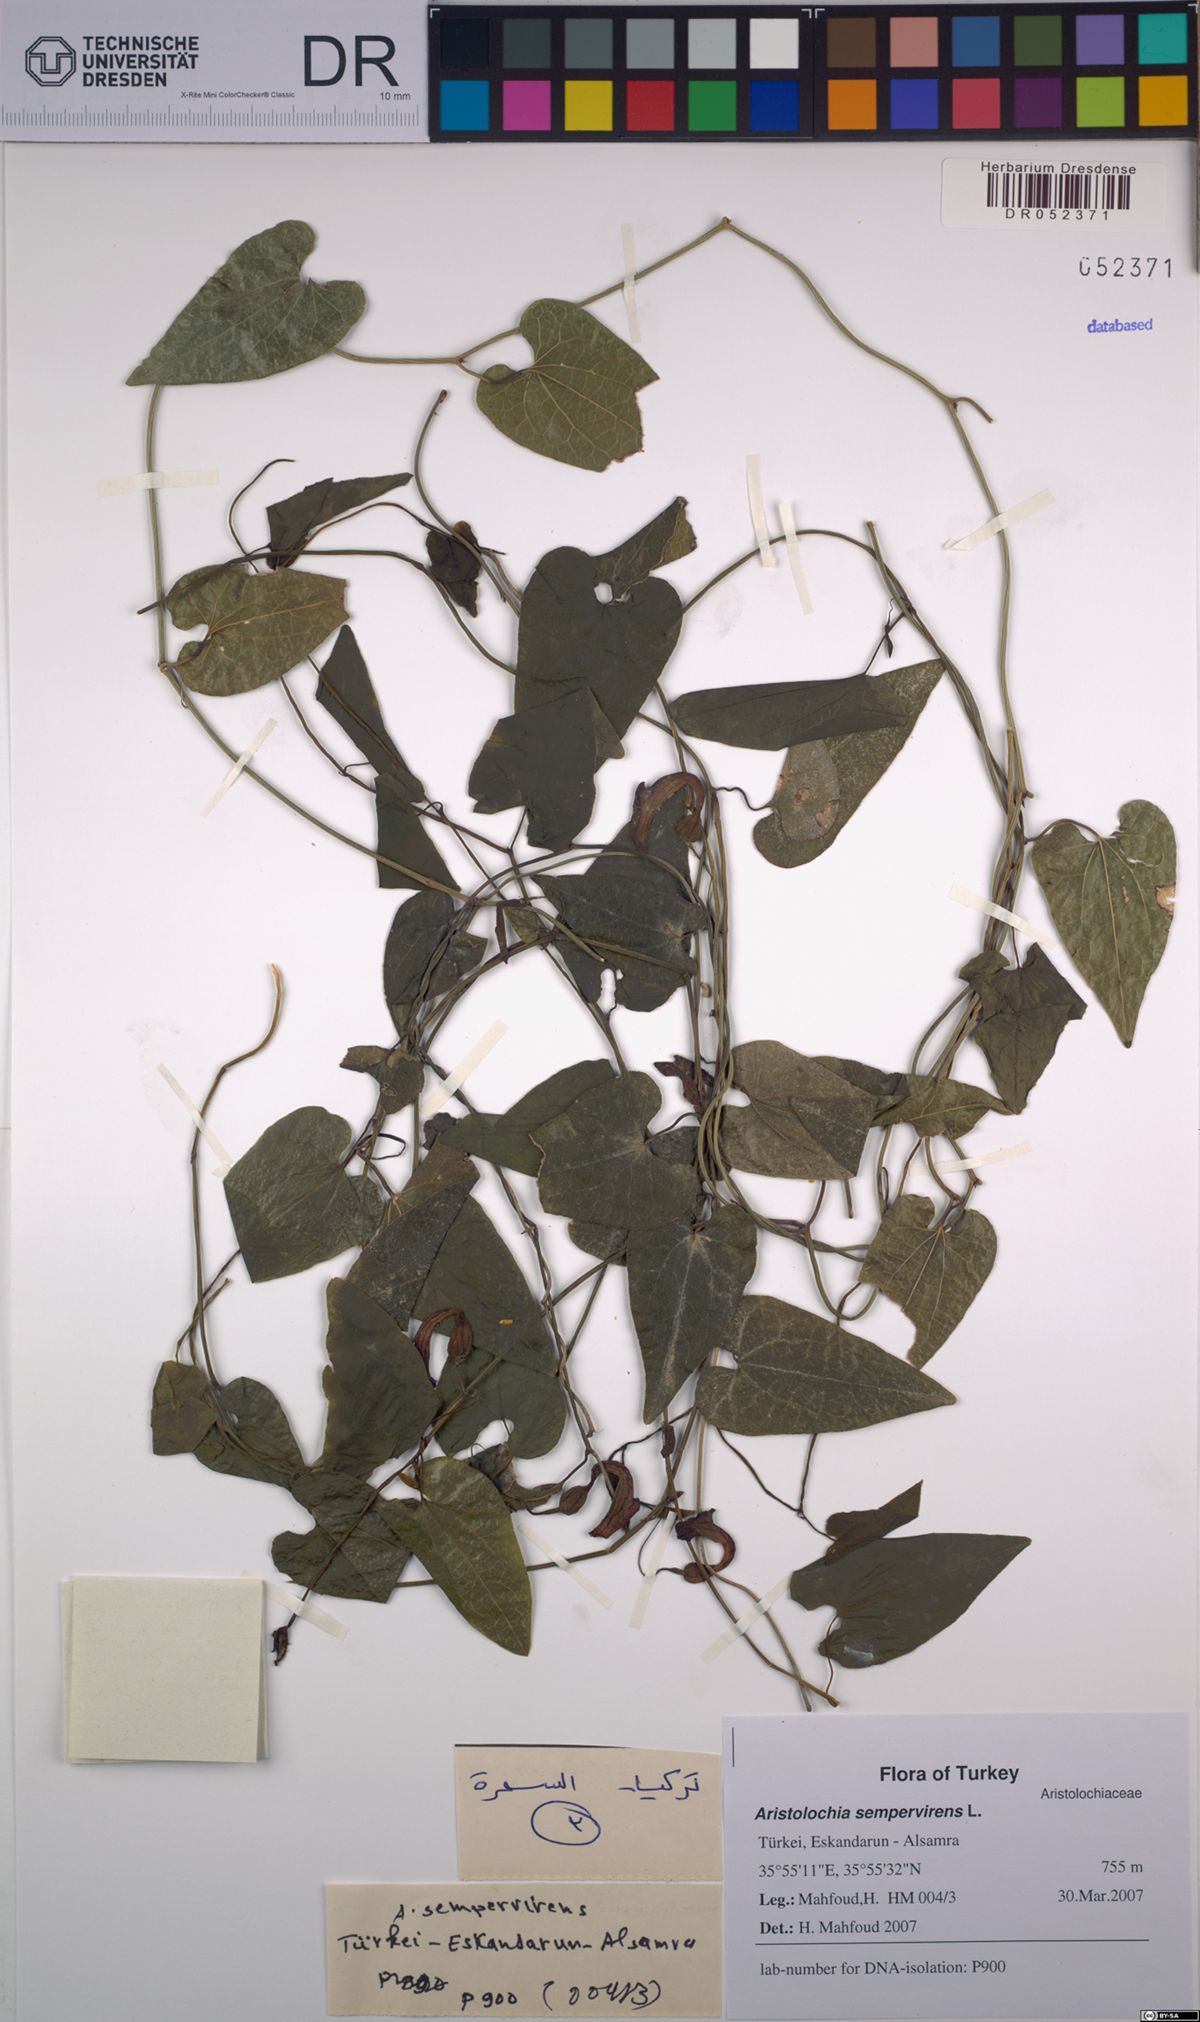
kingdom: Plantae
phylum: Tracheophyta
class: Magnoliopsida
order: Piperales
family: Aristolochiaceae
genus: Aristolochia
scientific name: Aristolochia sempervirens
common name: Long birthwort
